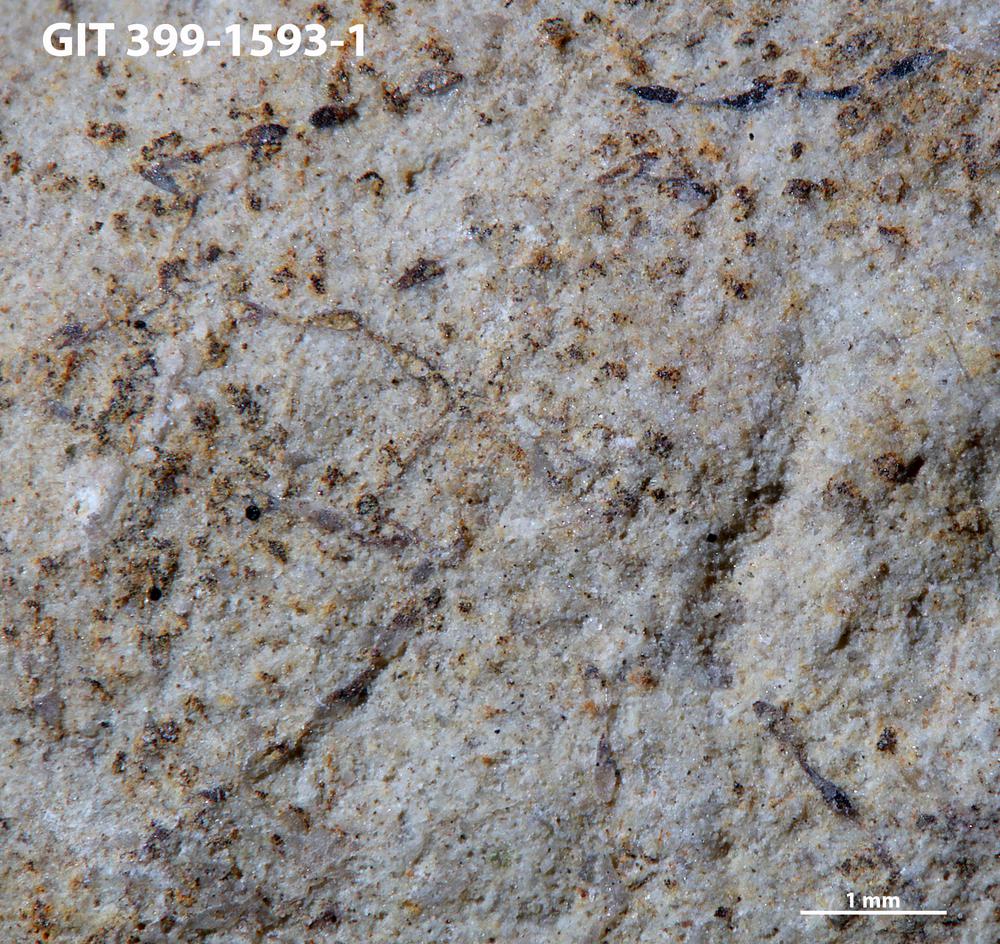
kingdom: Animalia
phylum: Bryozoa
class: Stenolaemata
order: Cyclostomatida
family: Corynotrypidae
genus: Corynotrypa
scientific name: Corynotrypa
